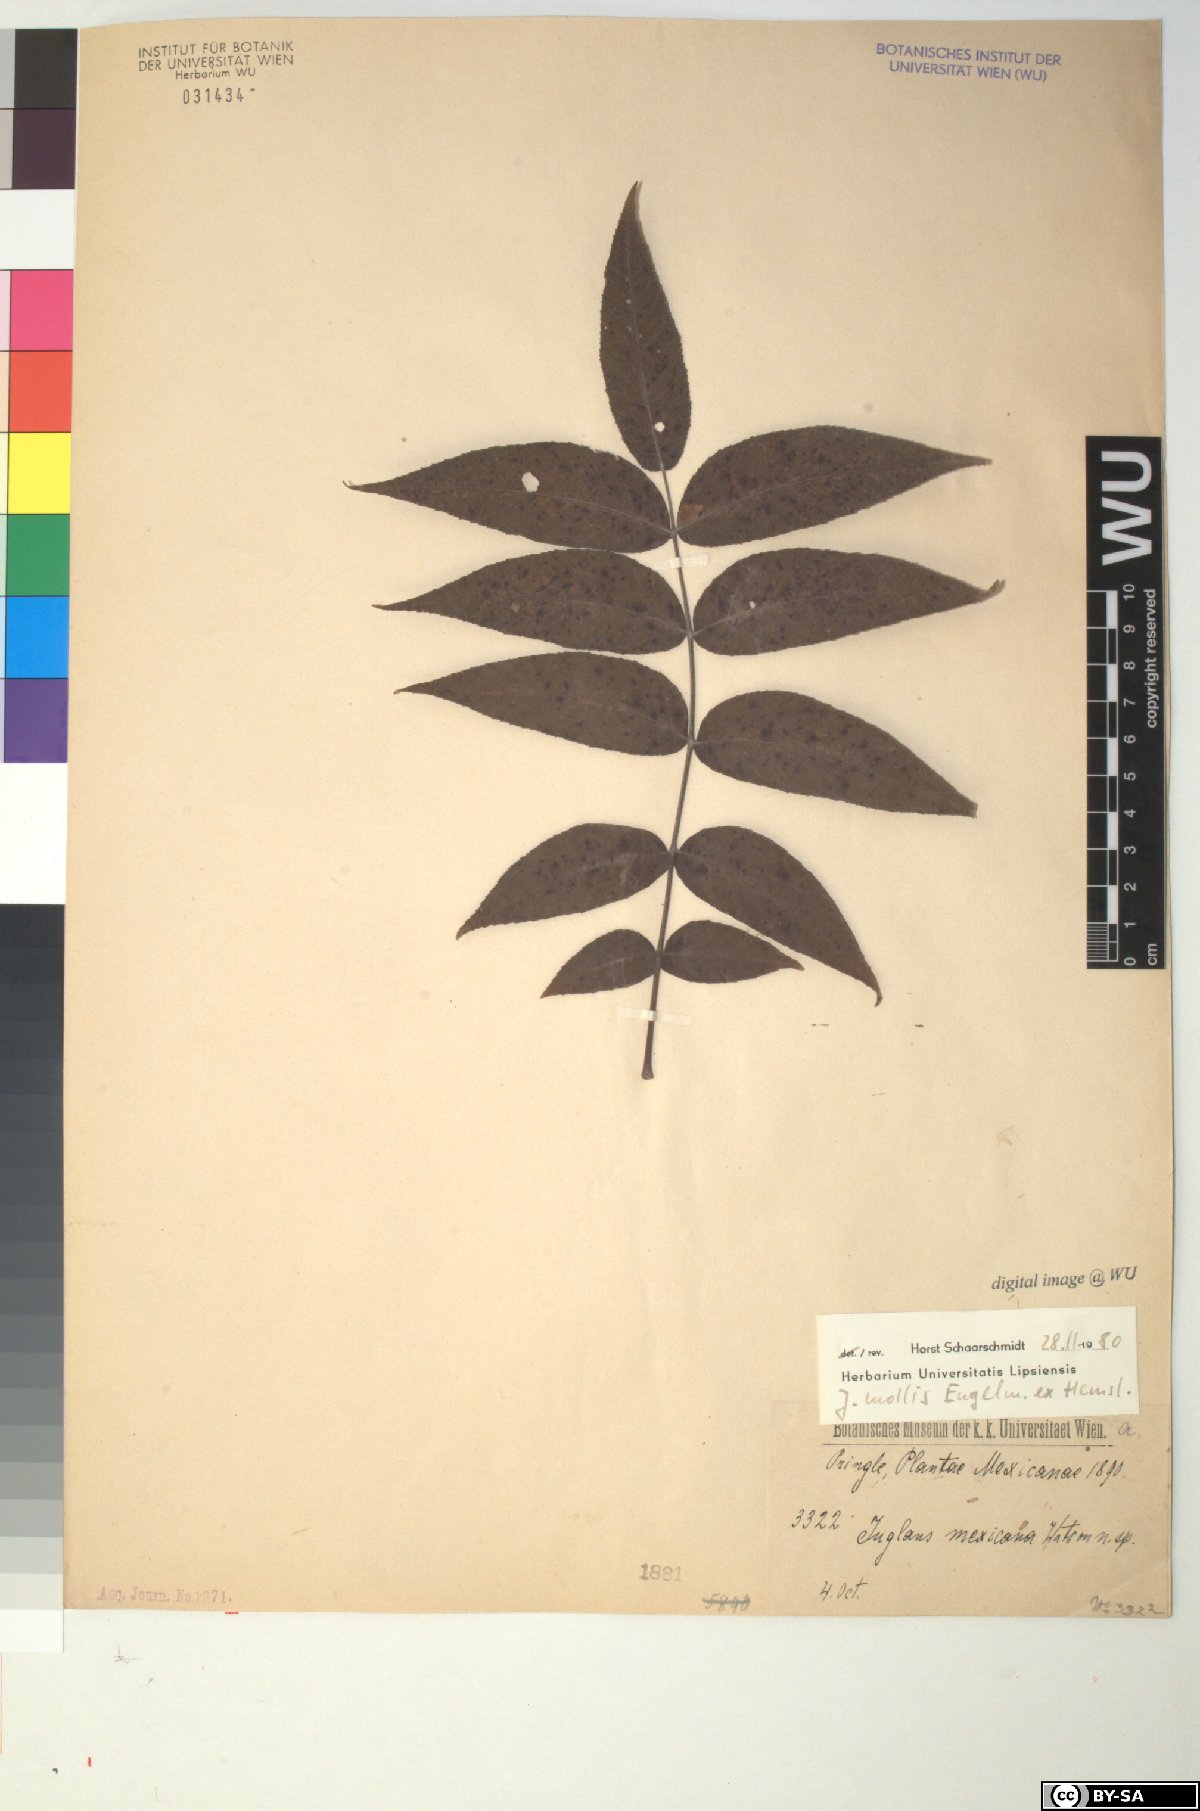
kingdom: Plantae
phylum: Tracheophyta
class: Magnoliopsida
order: Fagales
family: Juglandaceae
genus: Juglans
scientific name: Juglans mollis
